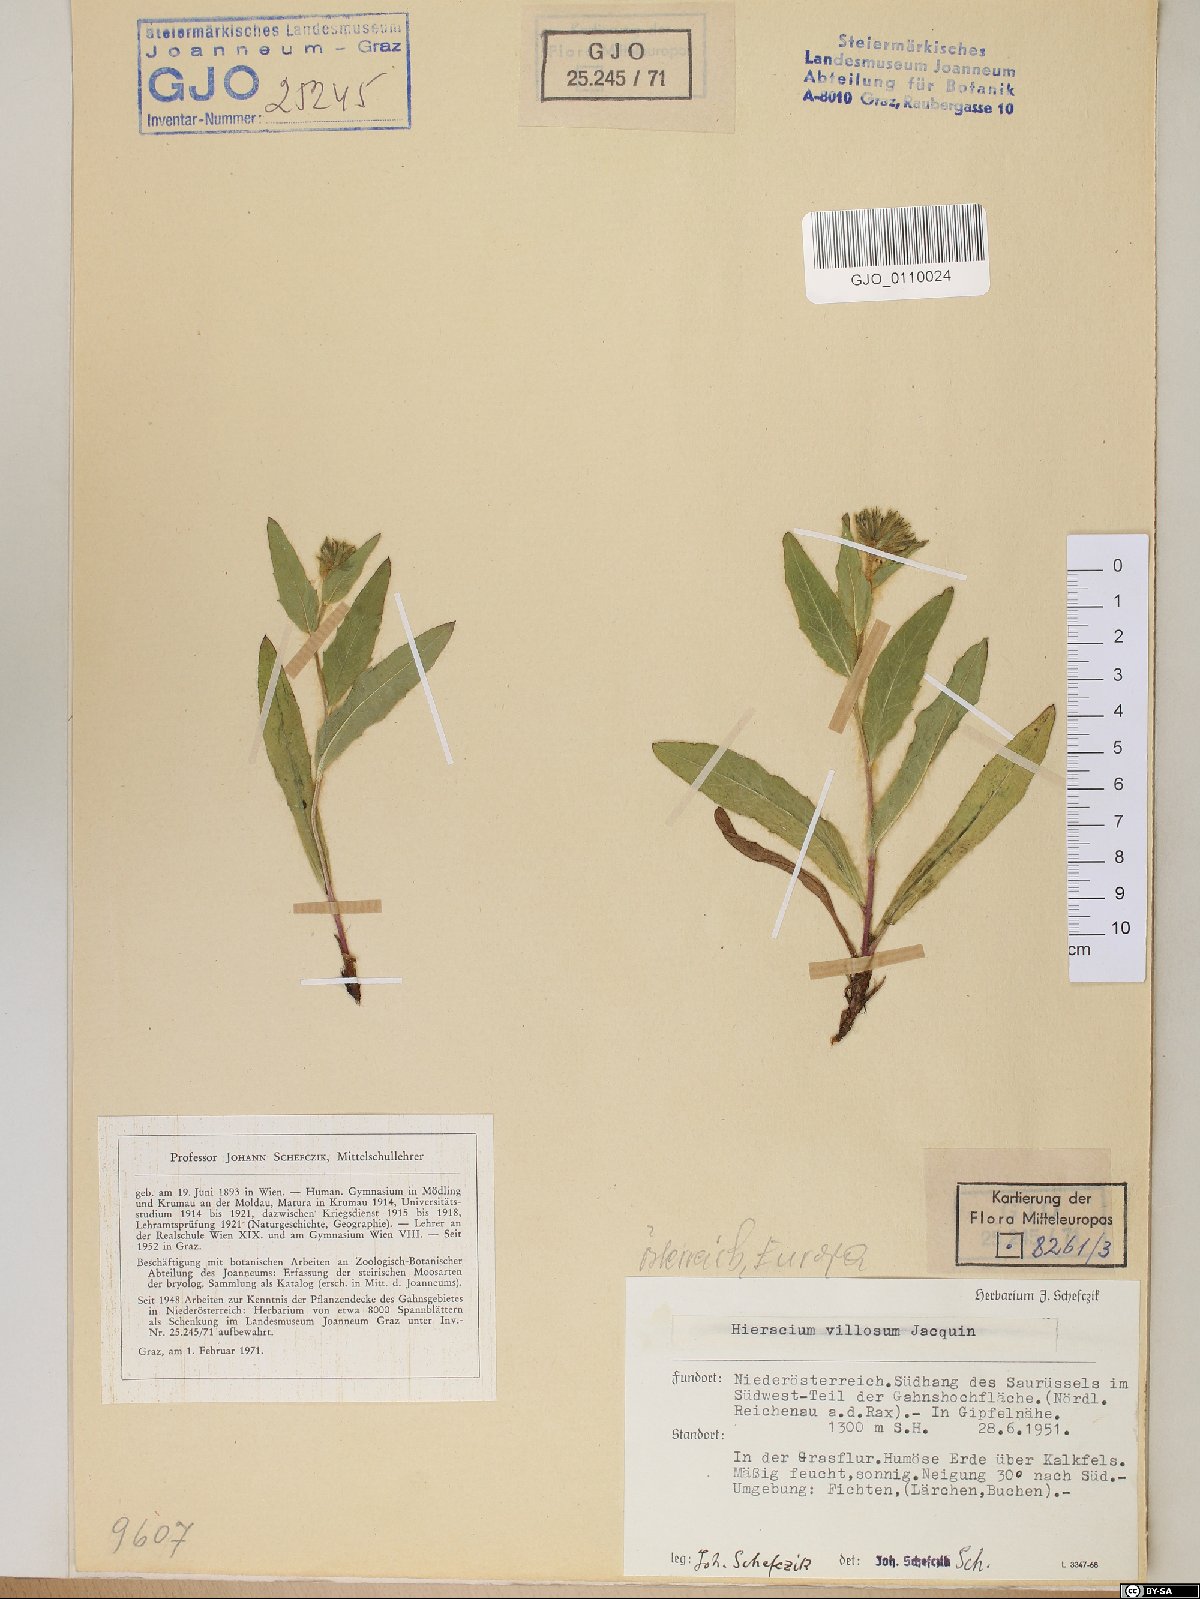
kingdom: Plantae
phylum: Tracheophyta
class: Magnoliopsida
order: Asterales
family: Asteraceae
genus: Hieracium
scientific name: Hieracium villosum
